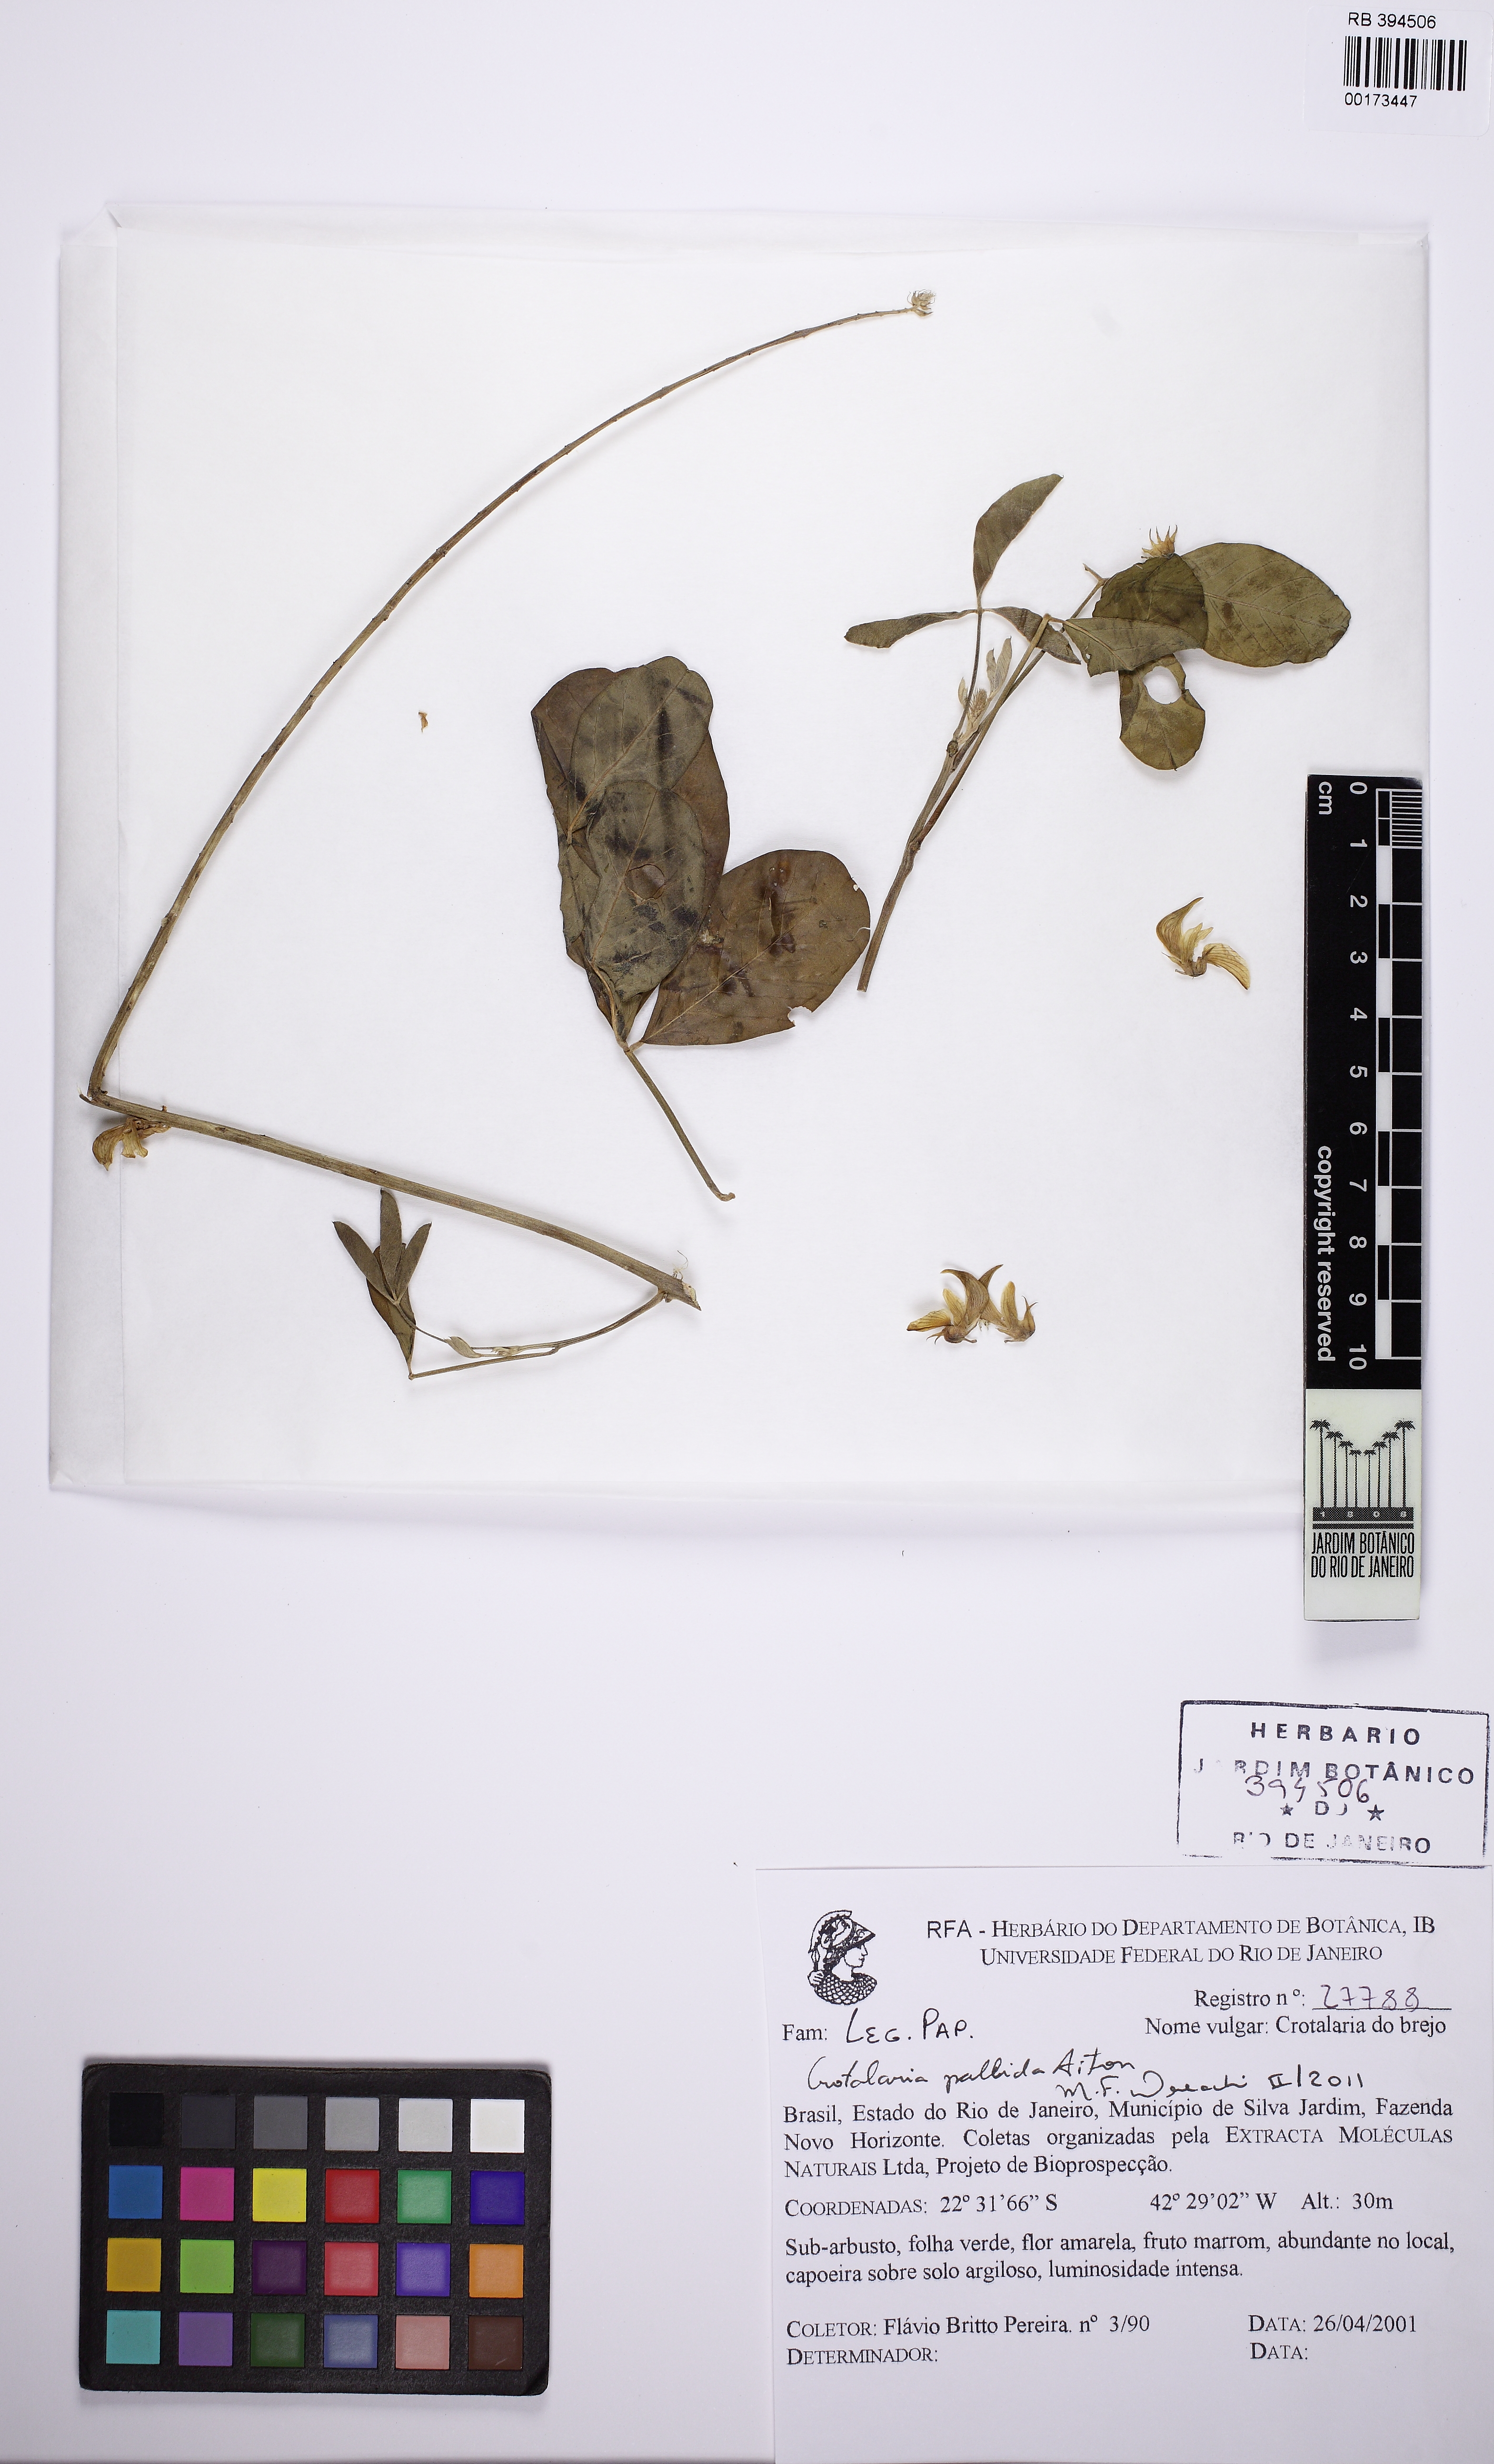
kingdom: Plantae
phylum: Tracheophyta
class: Magnoliopsida
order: Fabales
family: Fabaceae
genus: Crotalaria
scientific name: Crotalaria
